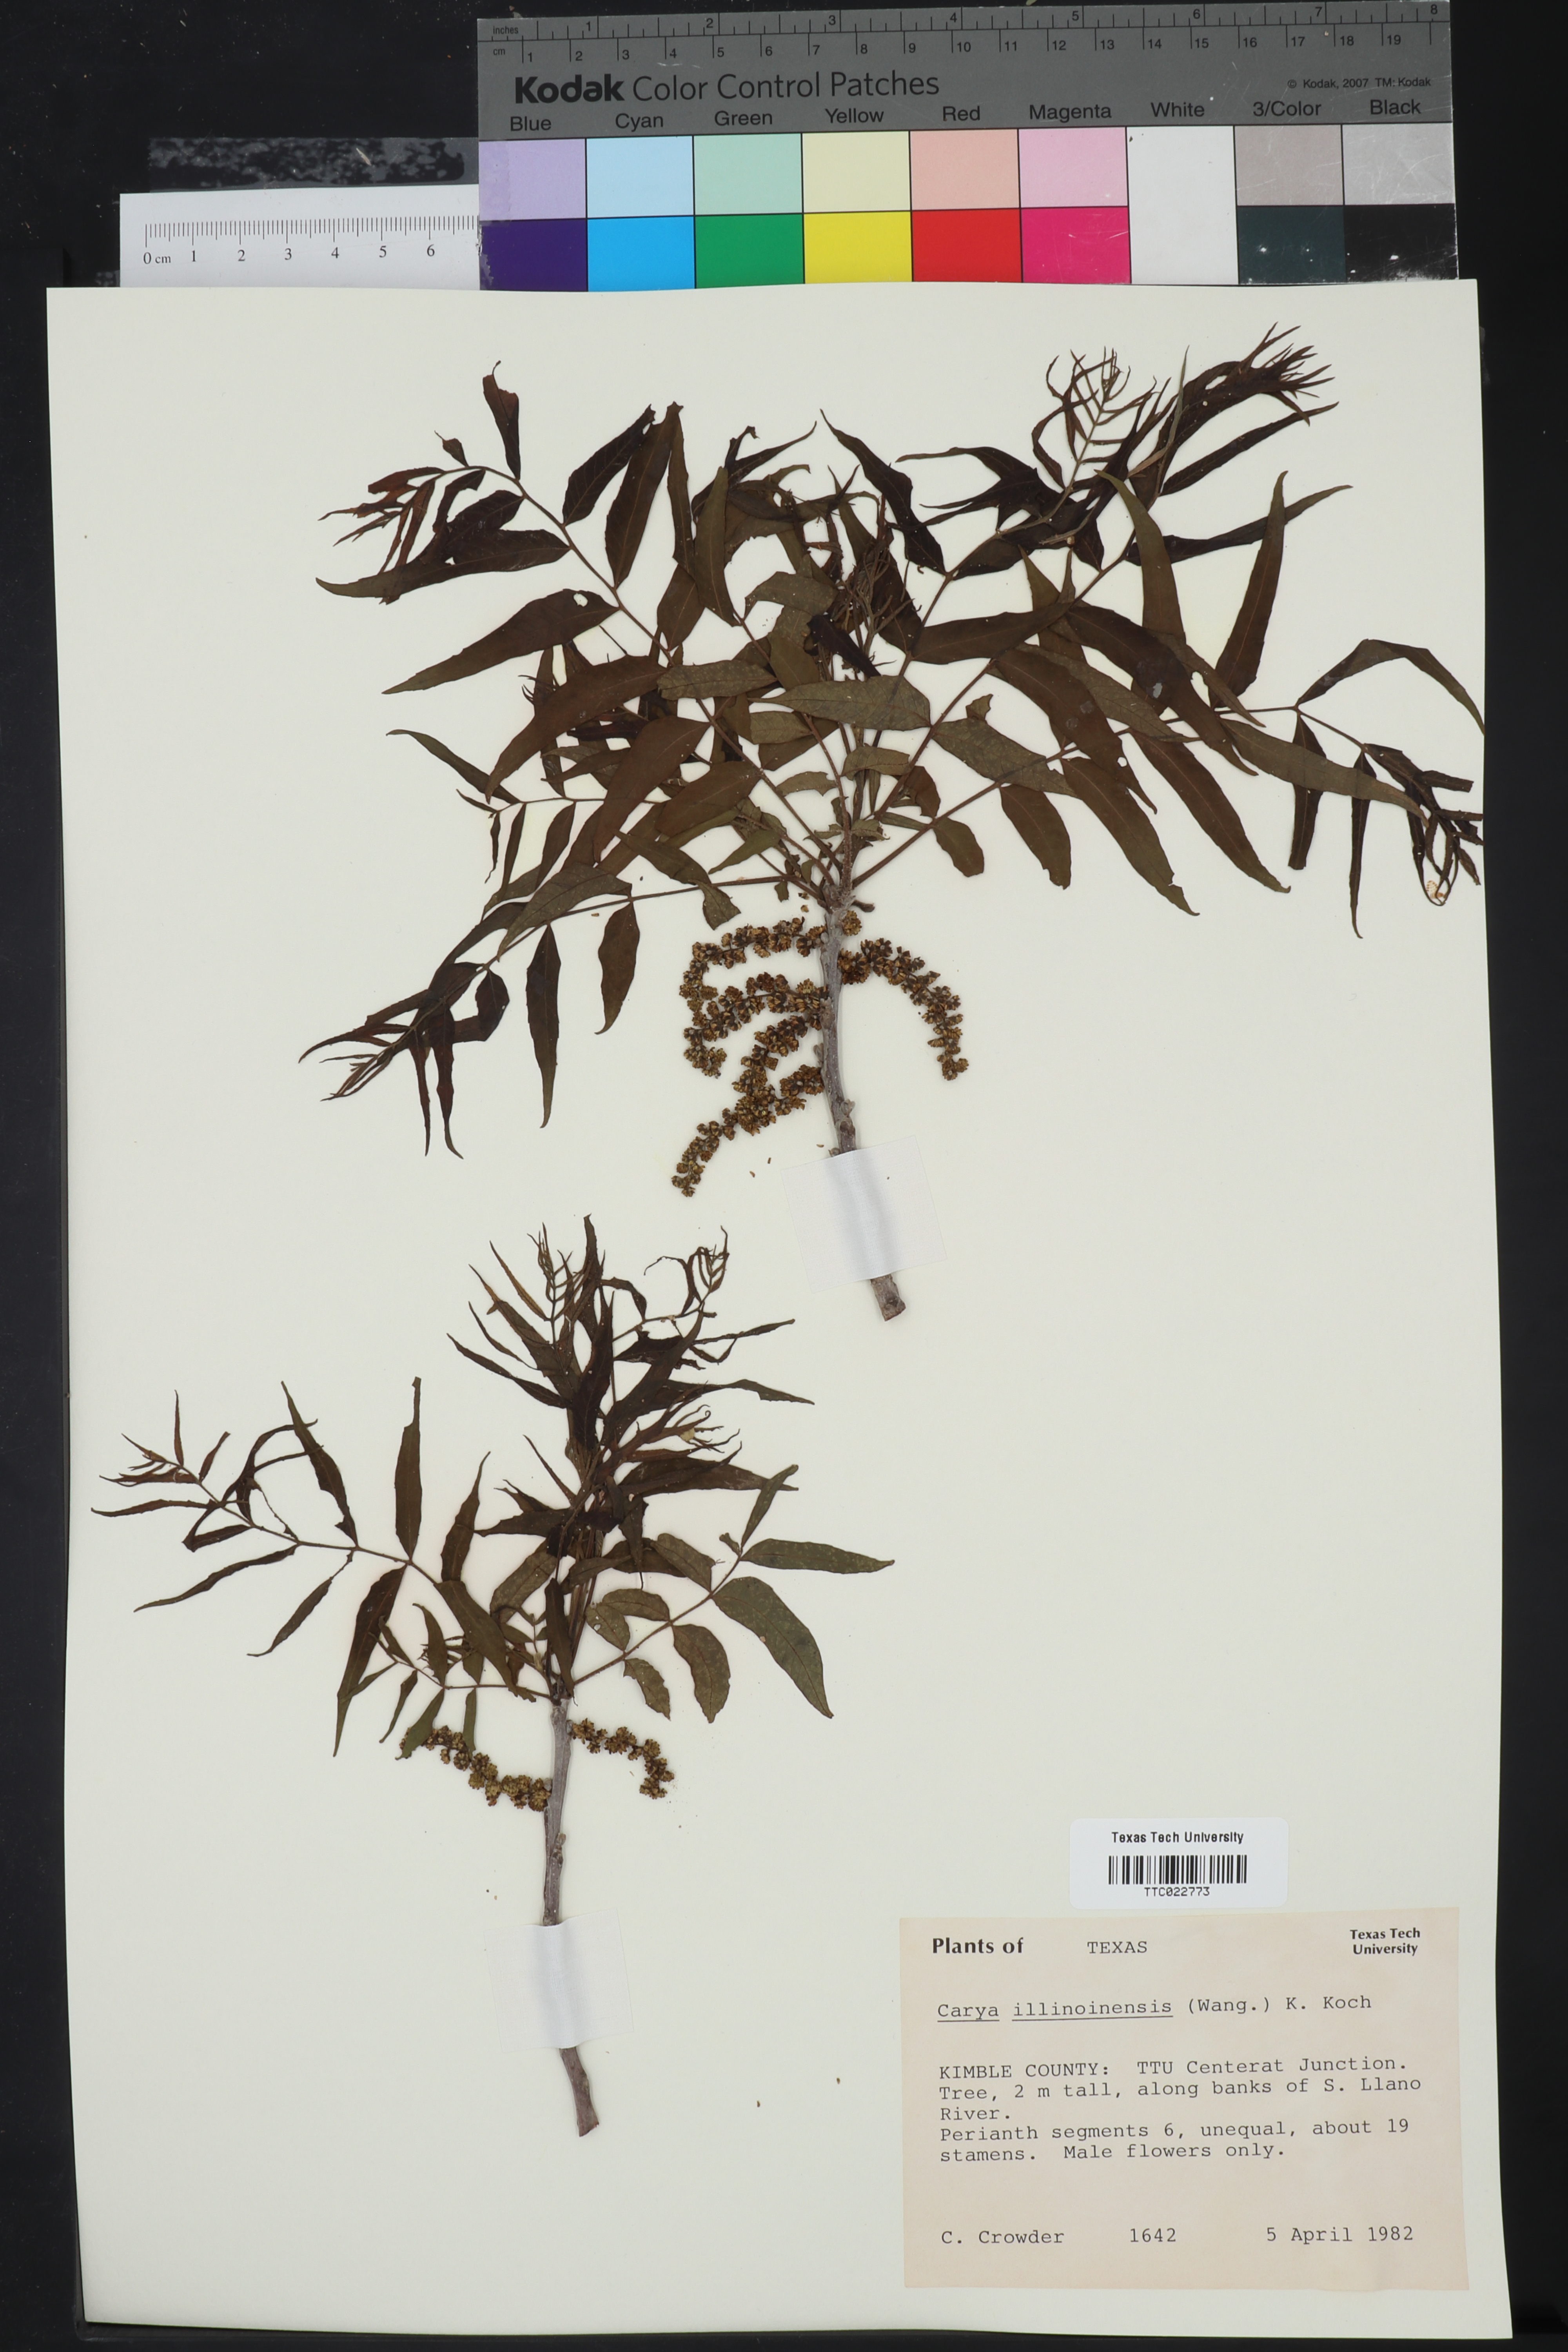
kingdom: Plantae
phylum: Tracheophyta
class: Magnoliopsida
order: Fagales
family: Juglandaceae
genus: Carya
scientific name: Carya illinoinensis
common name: Pecan
